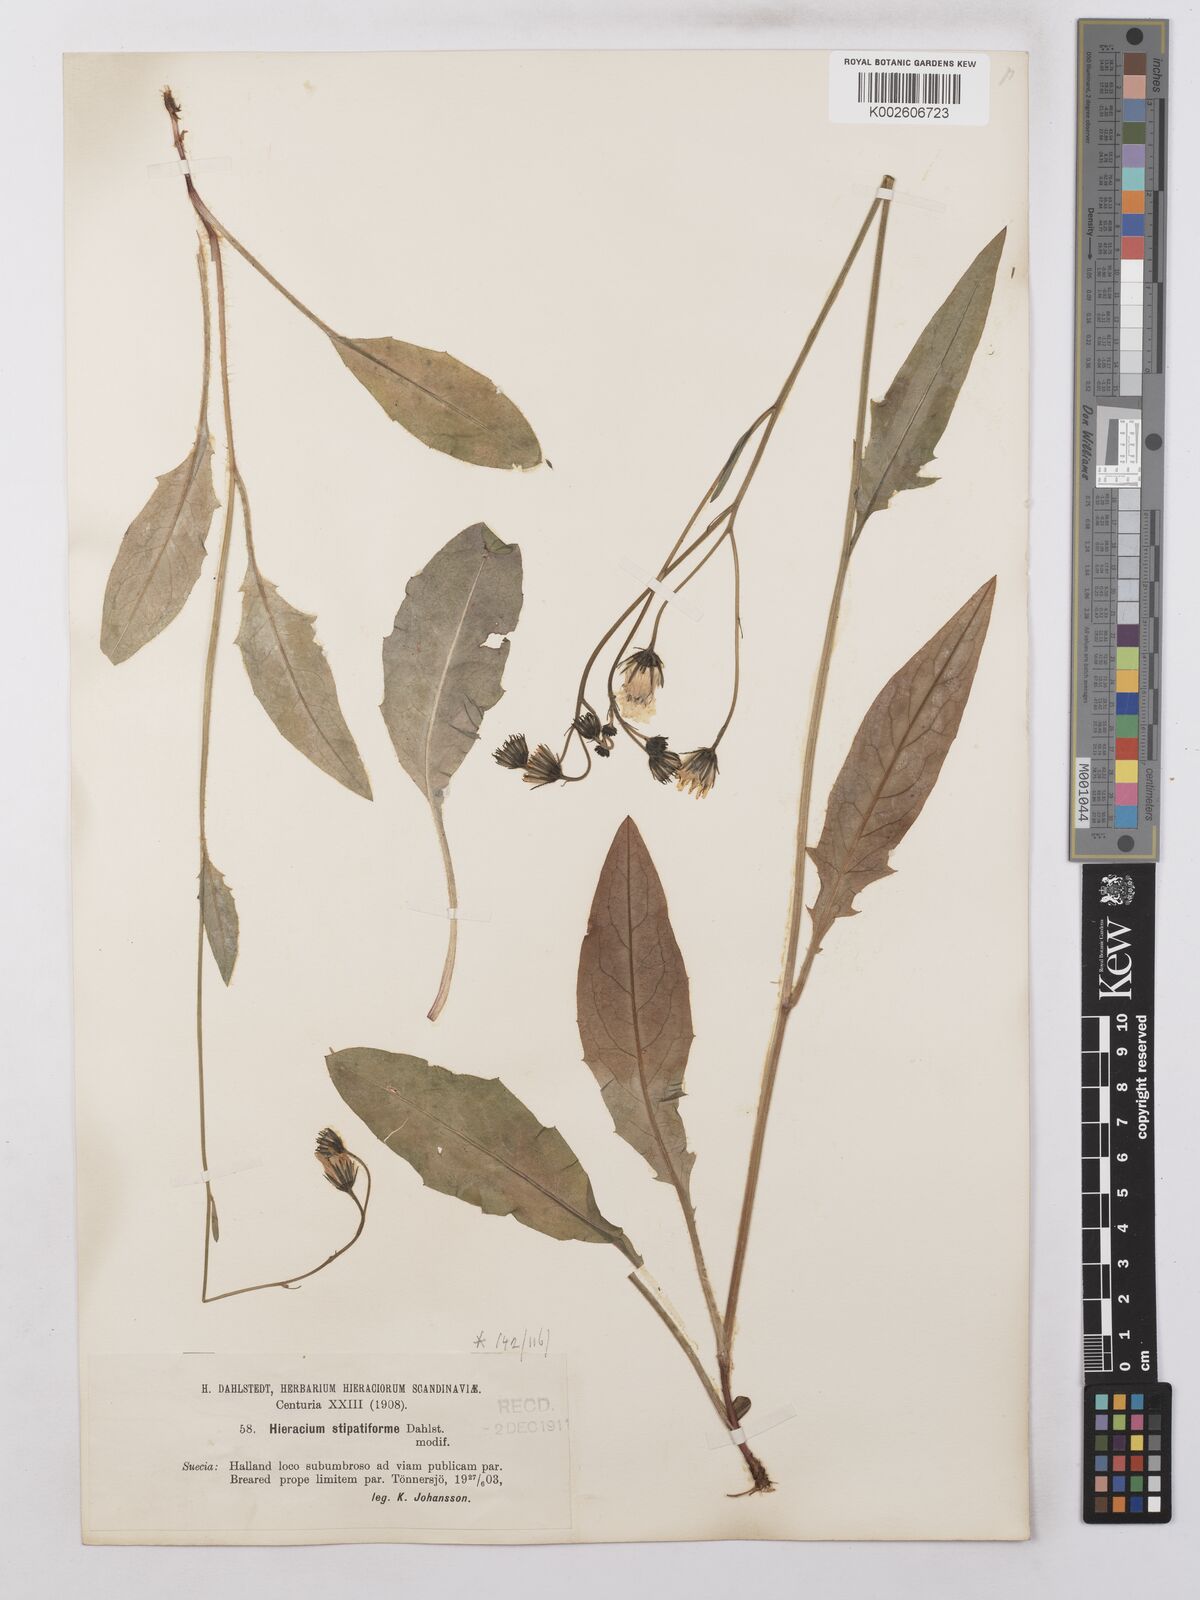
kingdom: Plantae
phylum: Tracheophyta
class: Magnoliopsida
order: Asterales
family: Asteraceae
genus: Hieracium
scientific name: Hieracium lachenalii
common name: Common hawkweed
